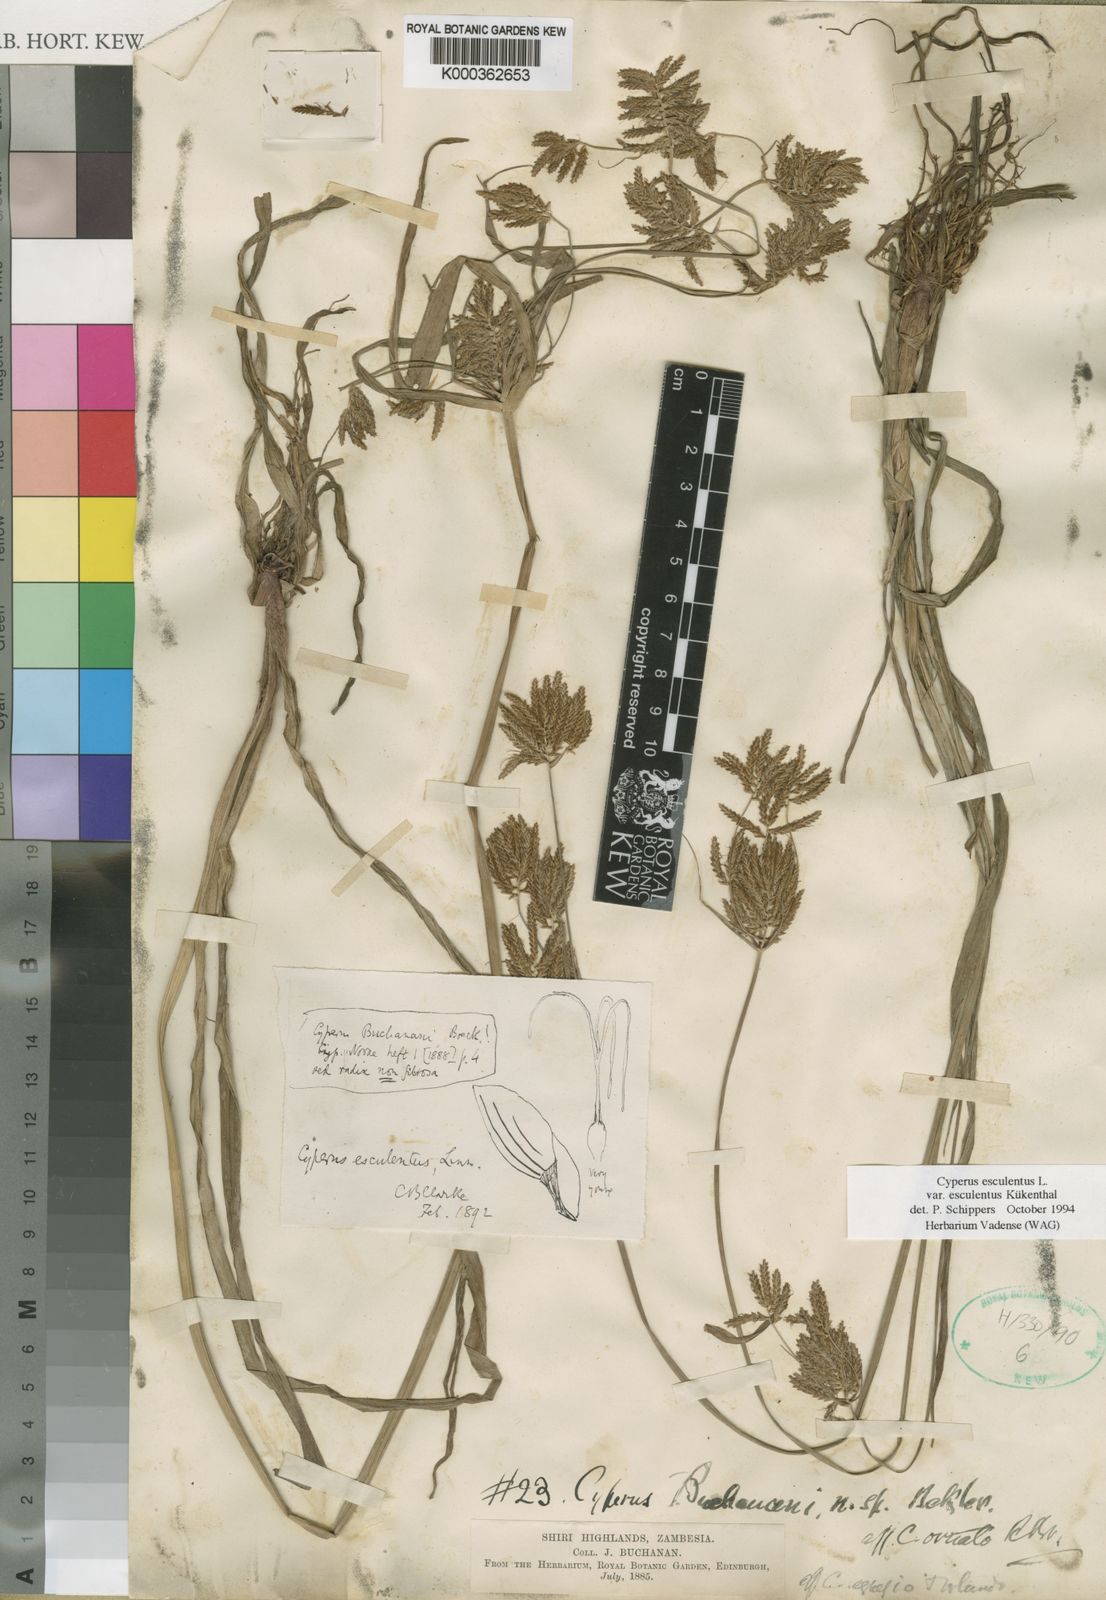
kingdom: Plantae
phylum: Tracheophyta
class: Liliopsida
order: Poales
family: Cyperaceae
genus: Cyperus
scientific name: Cyperus esculentus
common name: Yellow nutsedge
